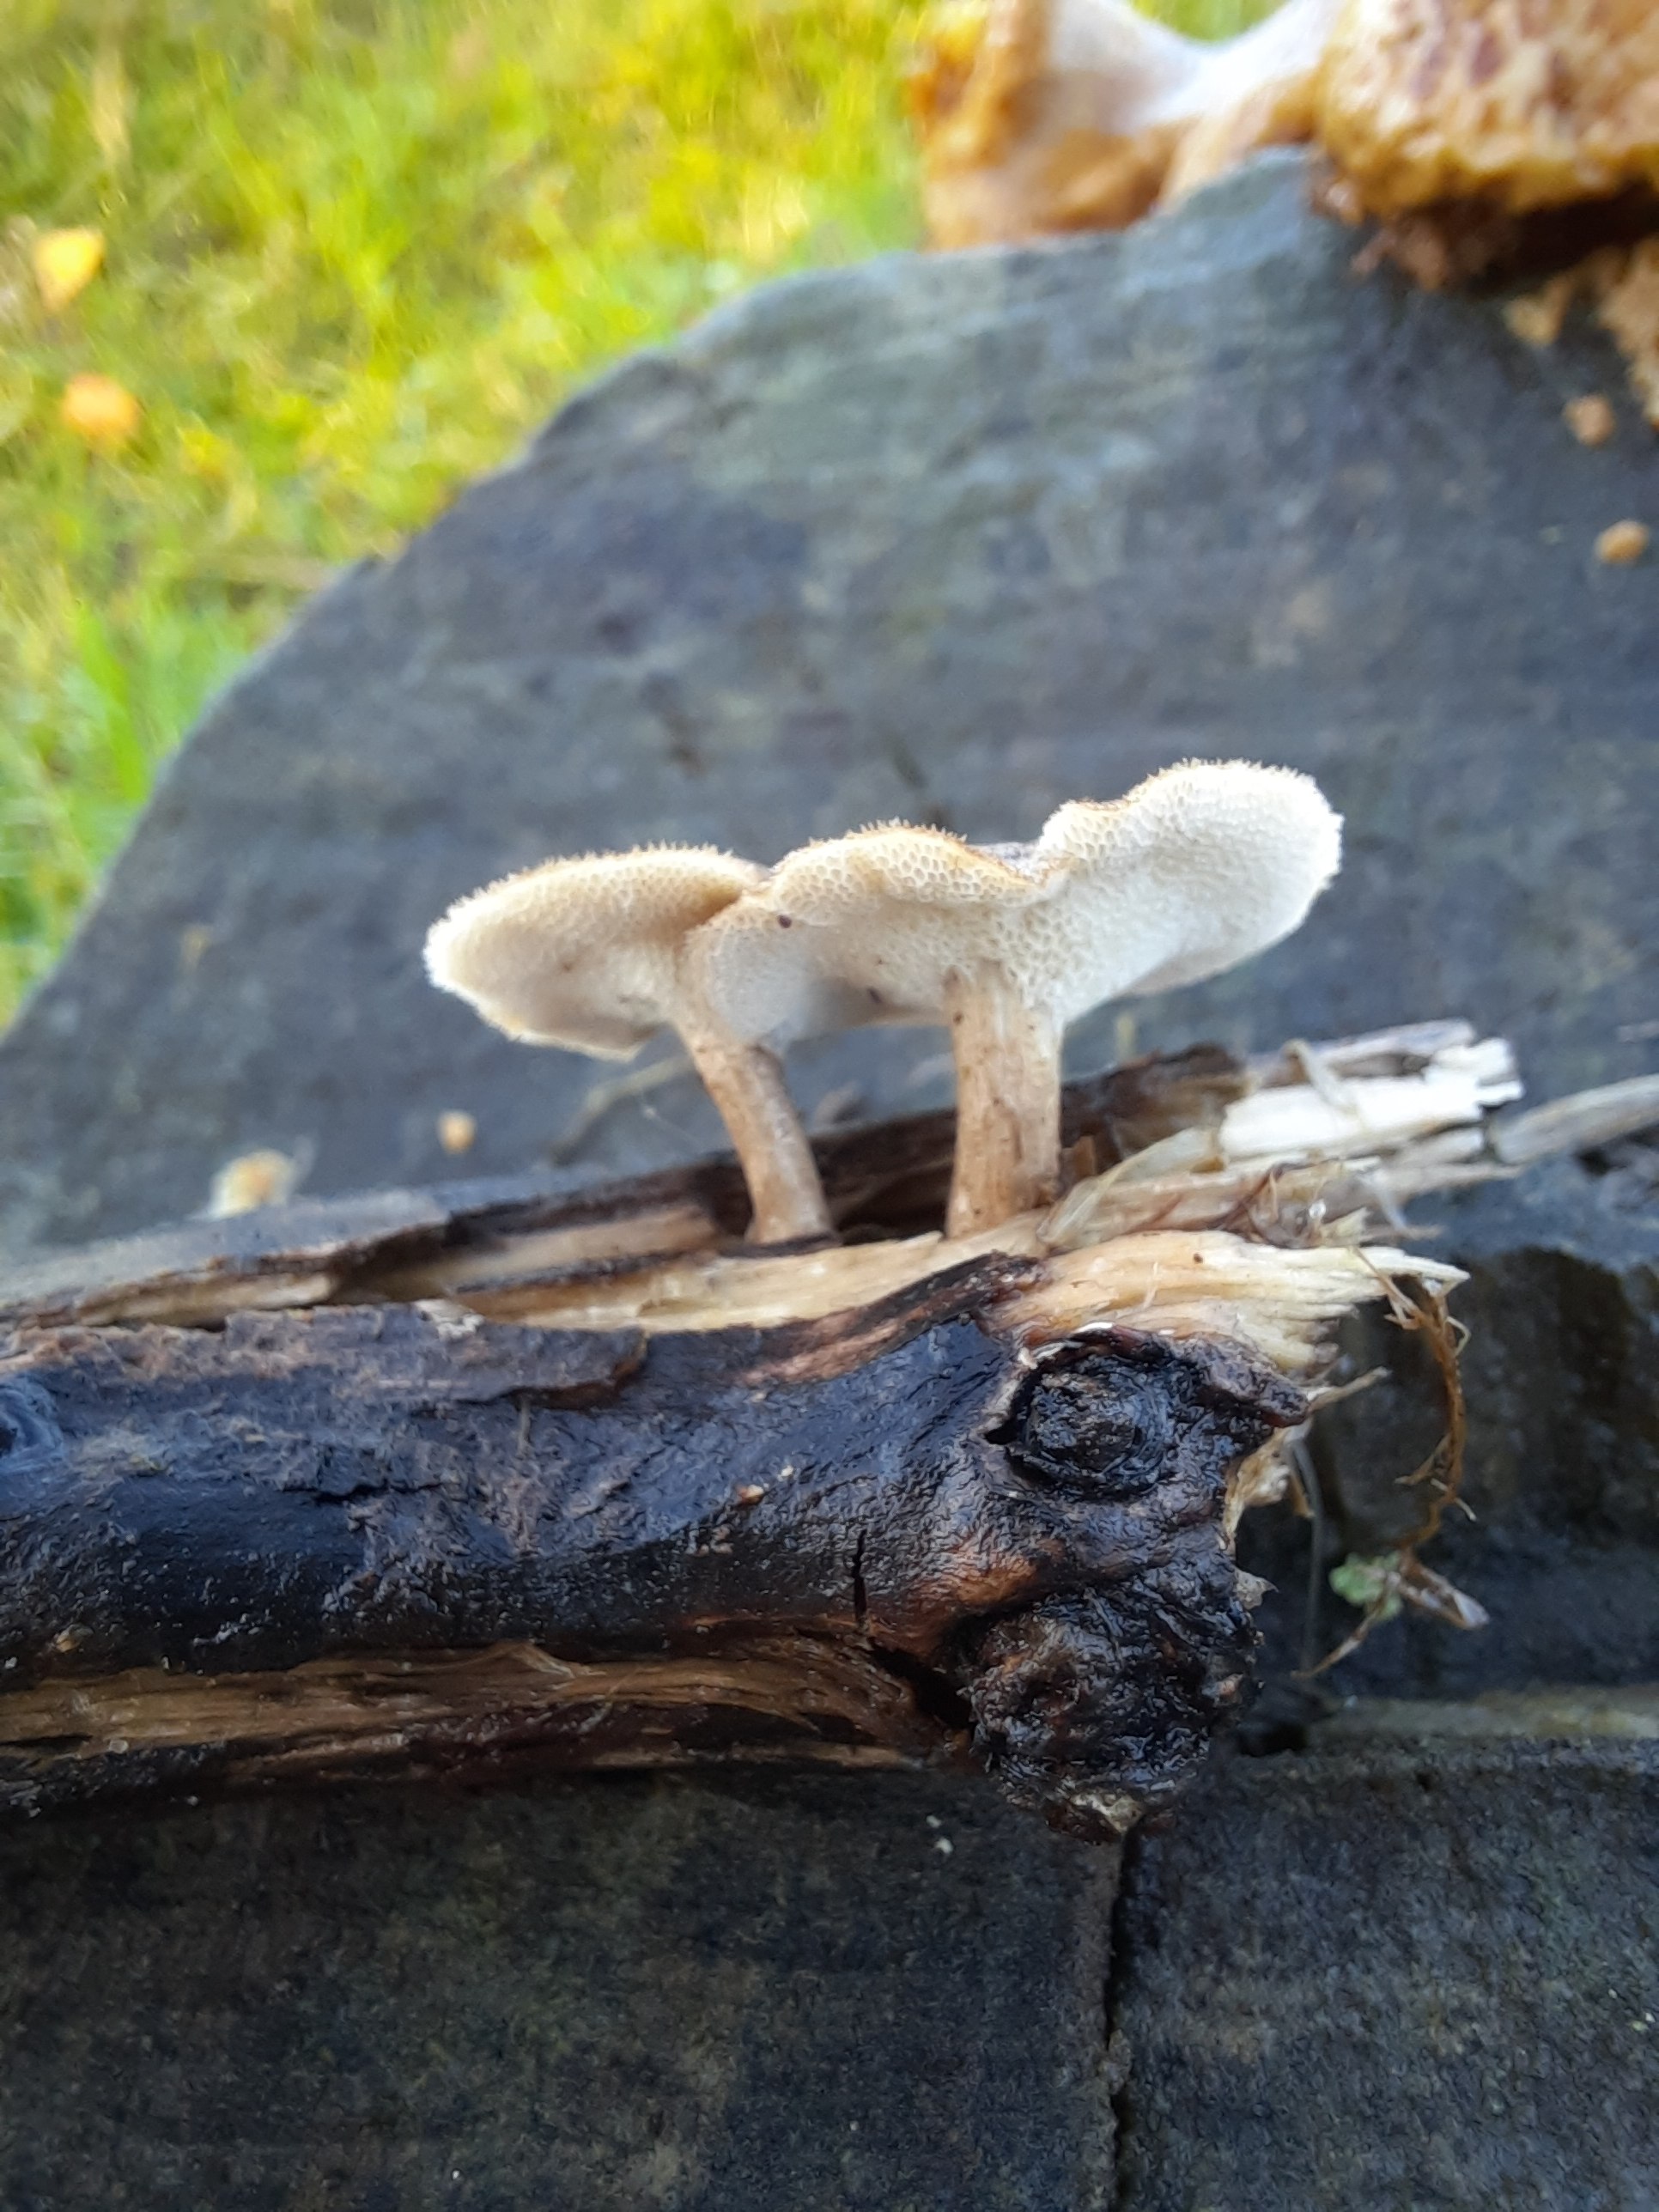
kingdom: Fungi
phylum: Basidiomycota
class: Agaricomycetes
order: Polyporales
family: Polyporaceae
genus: Lentinus
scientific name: Lentinus brumalis
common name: vinter-stilkporesvamp
